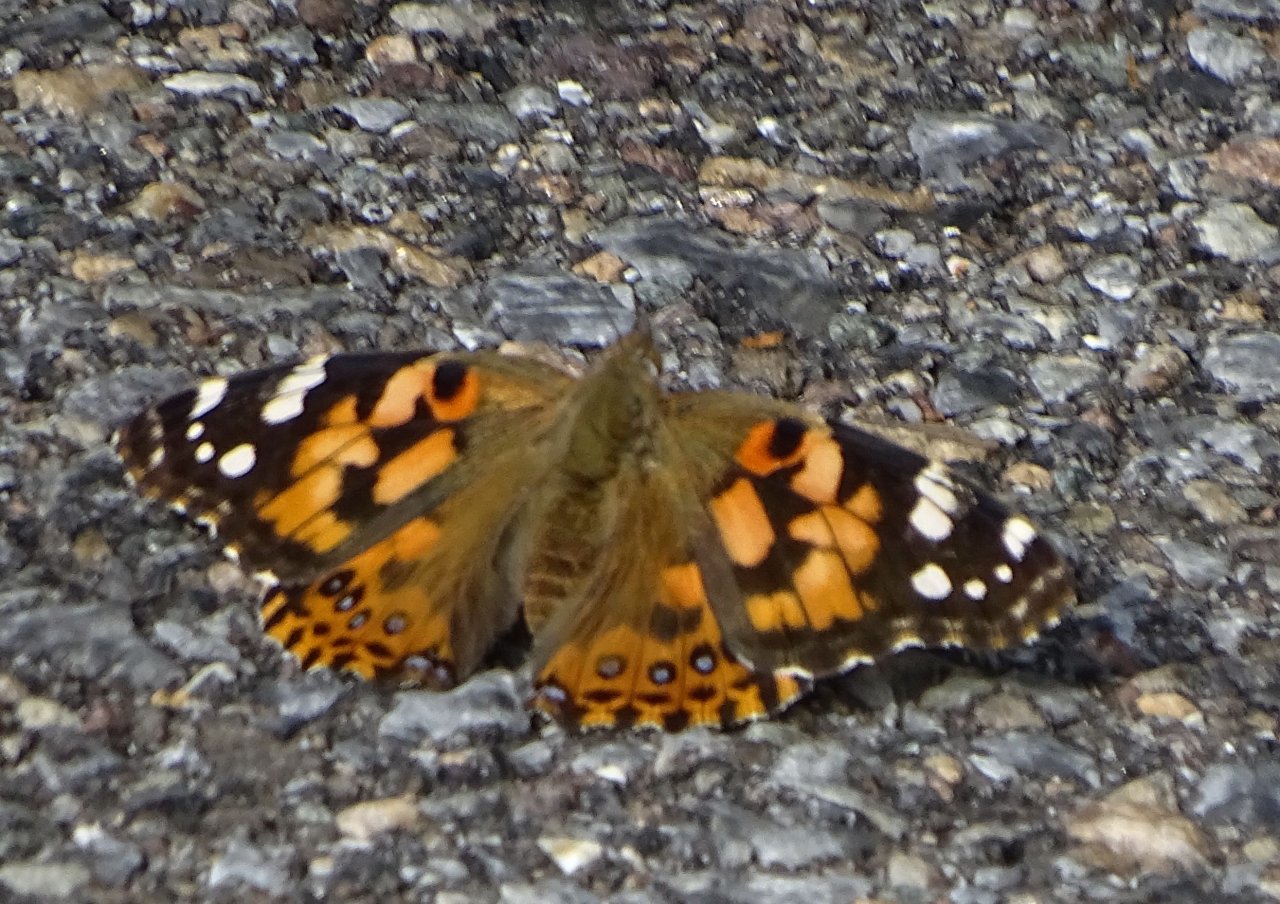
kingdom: Animalia
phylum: Arthropoda
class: Insecta
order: Lepidoptera
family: Nymphalidae
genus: Vanessa
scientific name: Vanessa cardui
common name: Painted Lady
